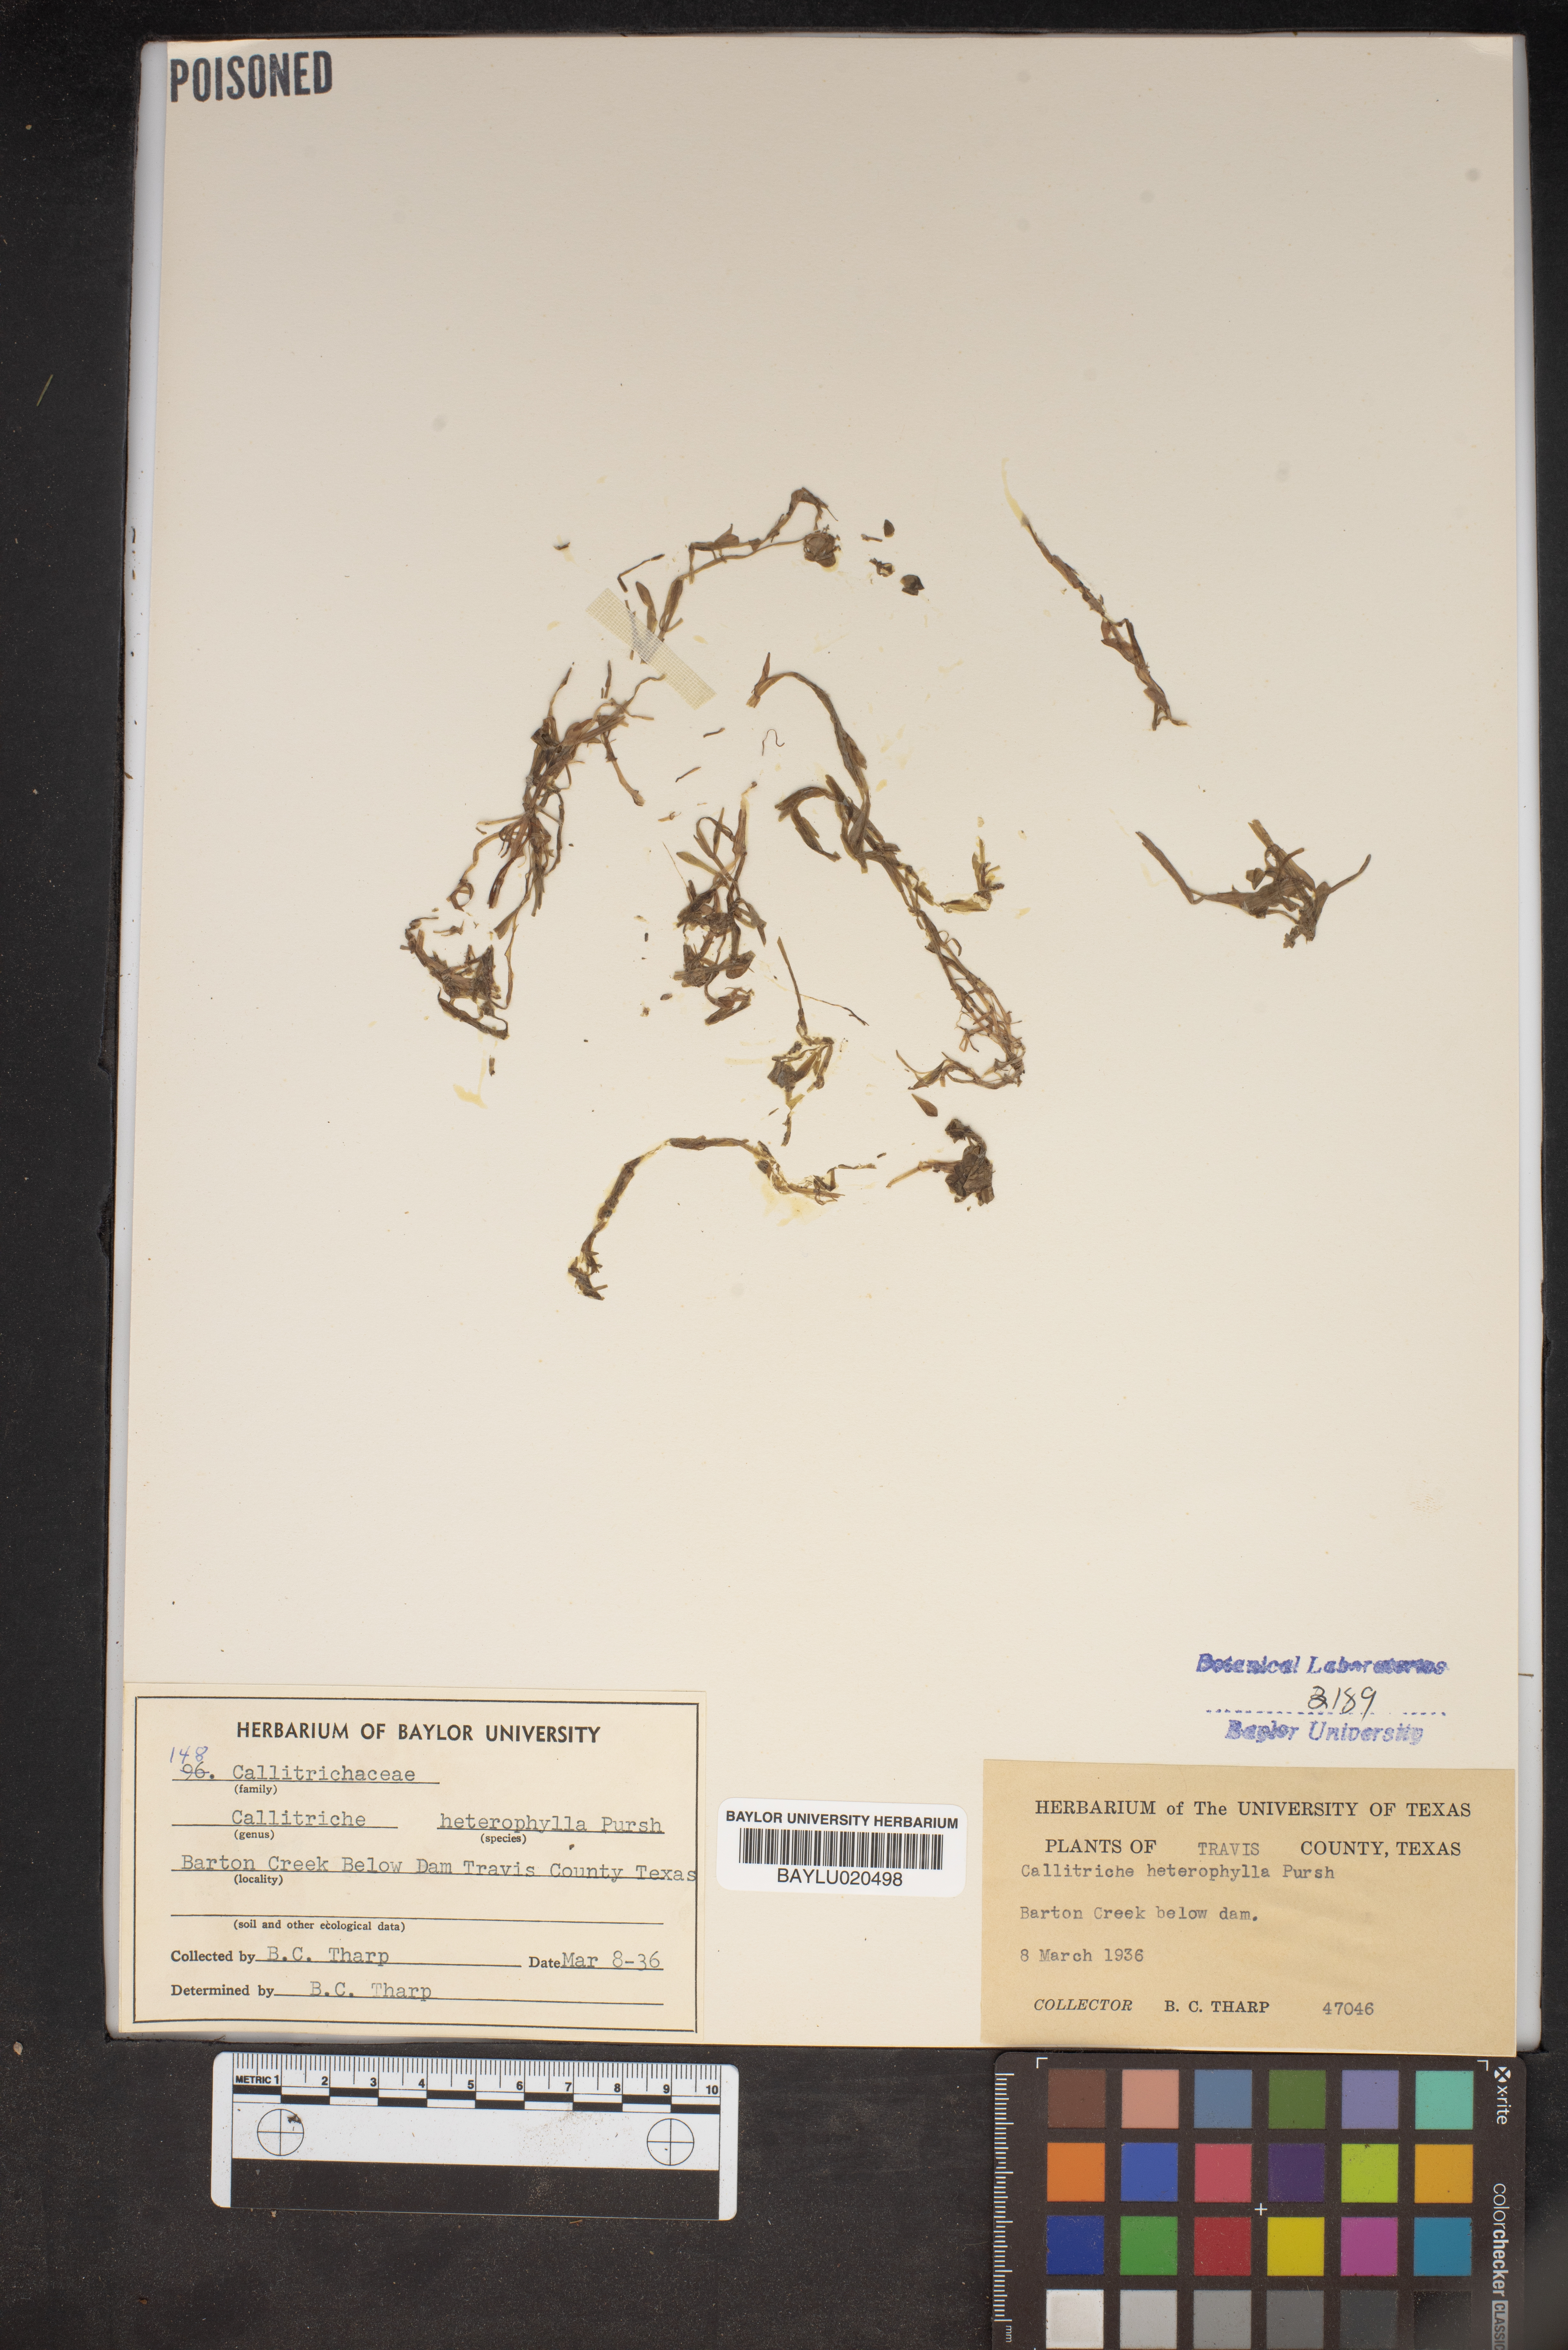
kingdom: Plantae
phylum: Tracheophyta
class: Magnoliopsida
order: Lamiales
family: Plantaginaceae
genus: Callitriche
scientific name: Callitriche heterophylla
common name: Two-headed water-starwort
